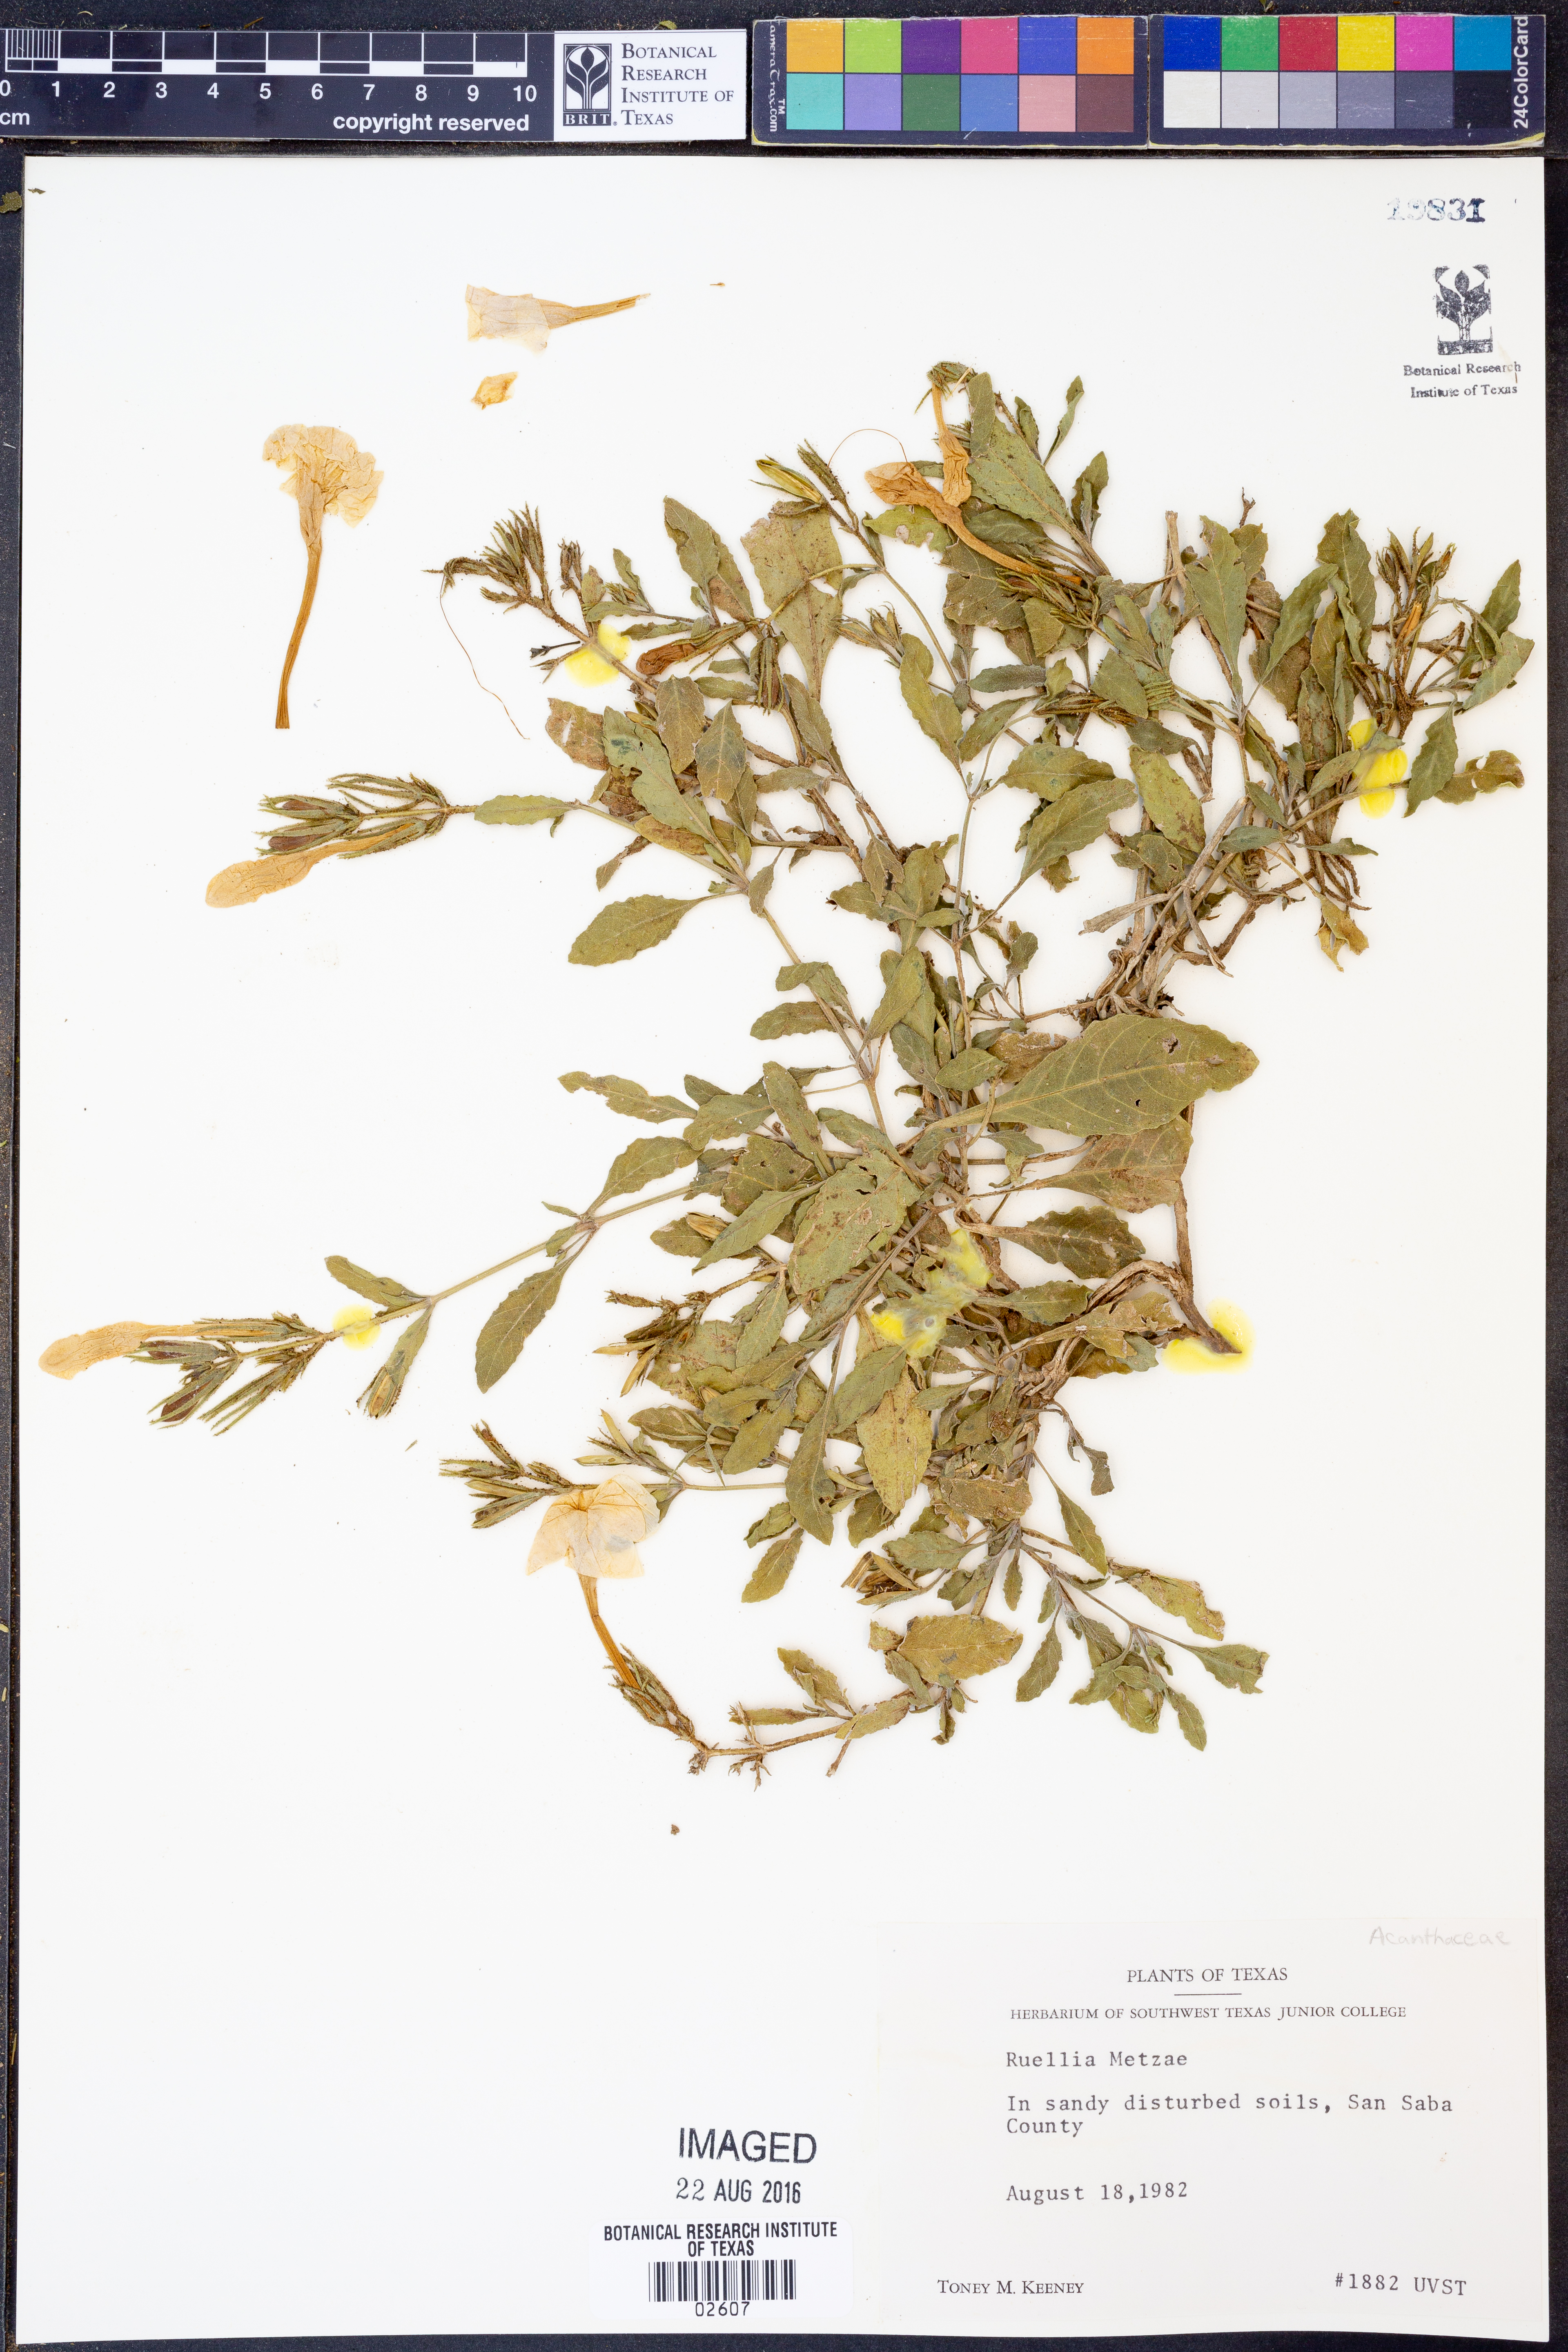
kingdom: Plantae
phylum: Tracheophyta
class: Magnoliopsida
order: Lamiales
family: Acanthaceae
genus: Ruellia
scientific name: Ruellia metzae
